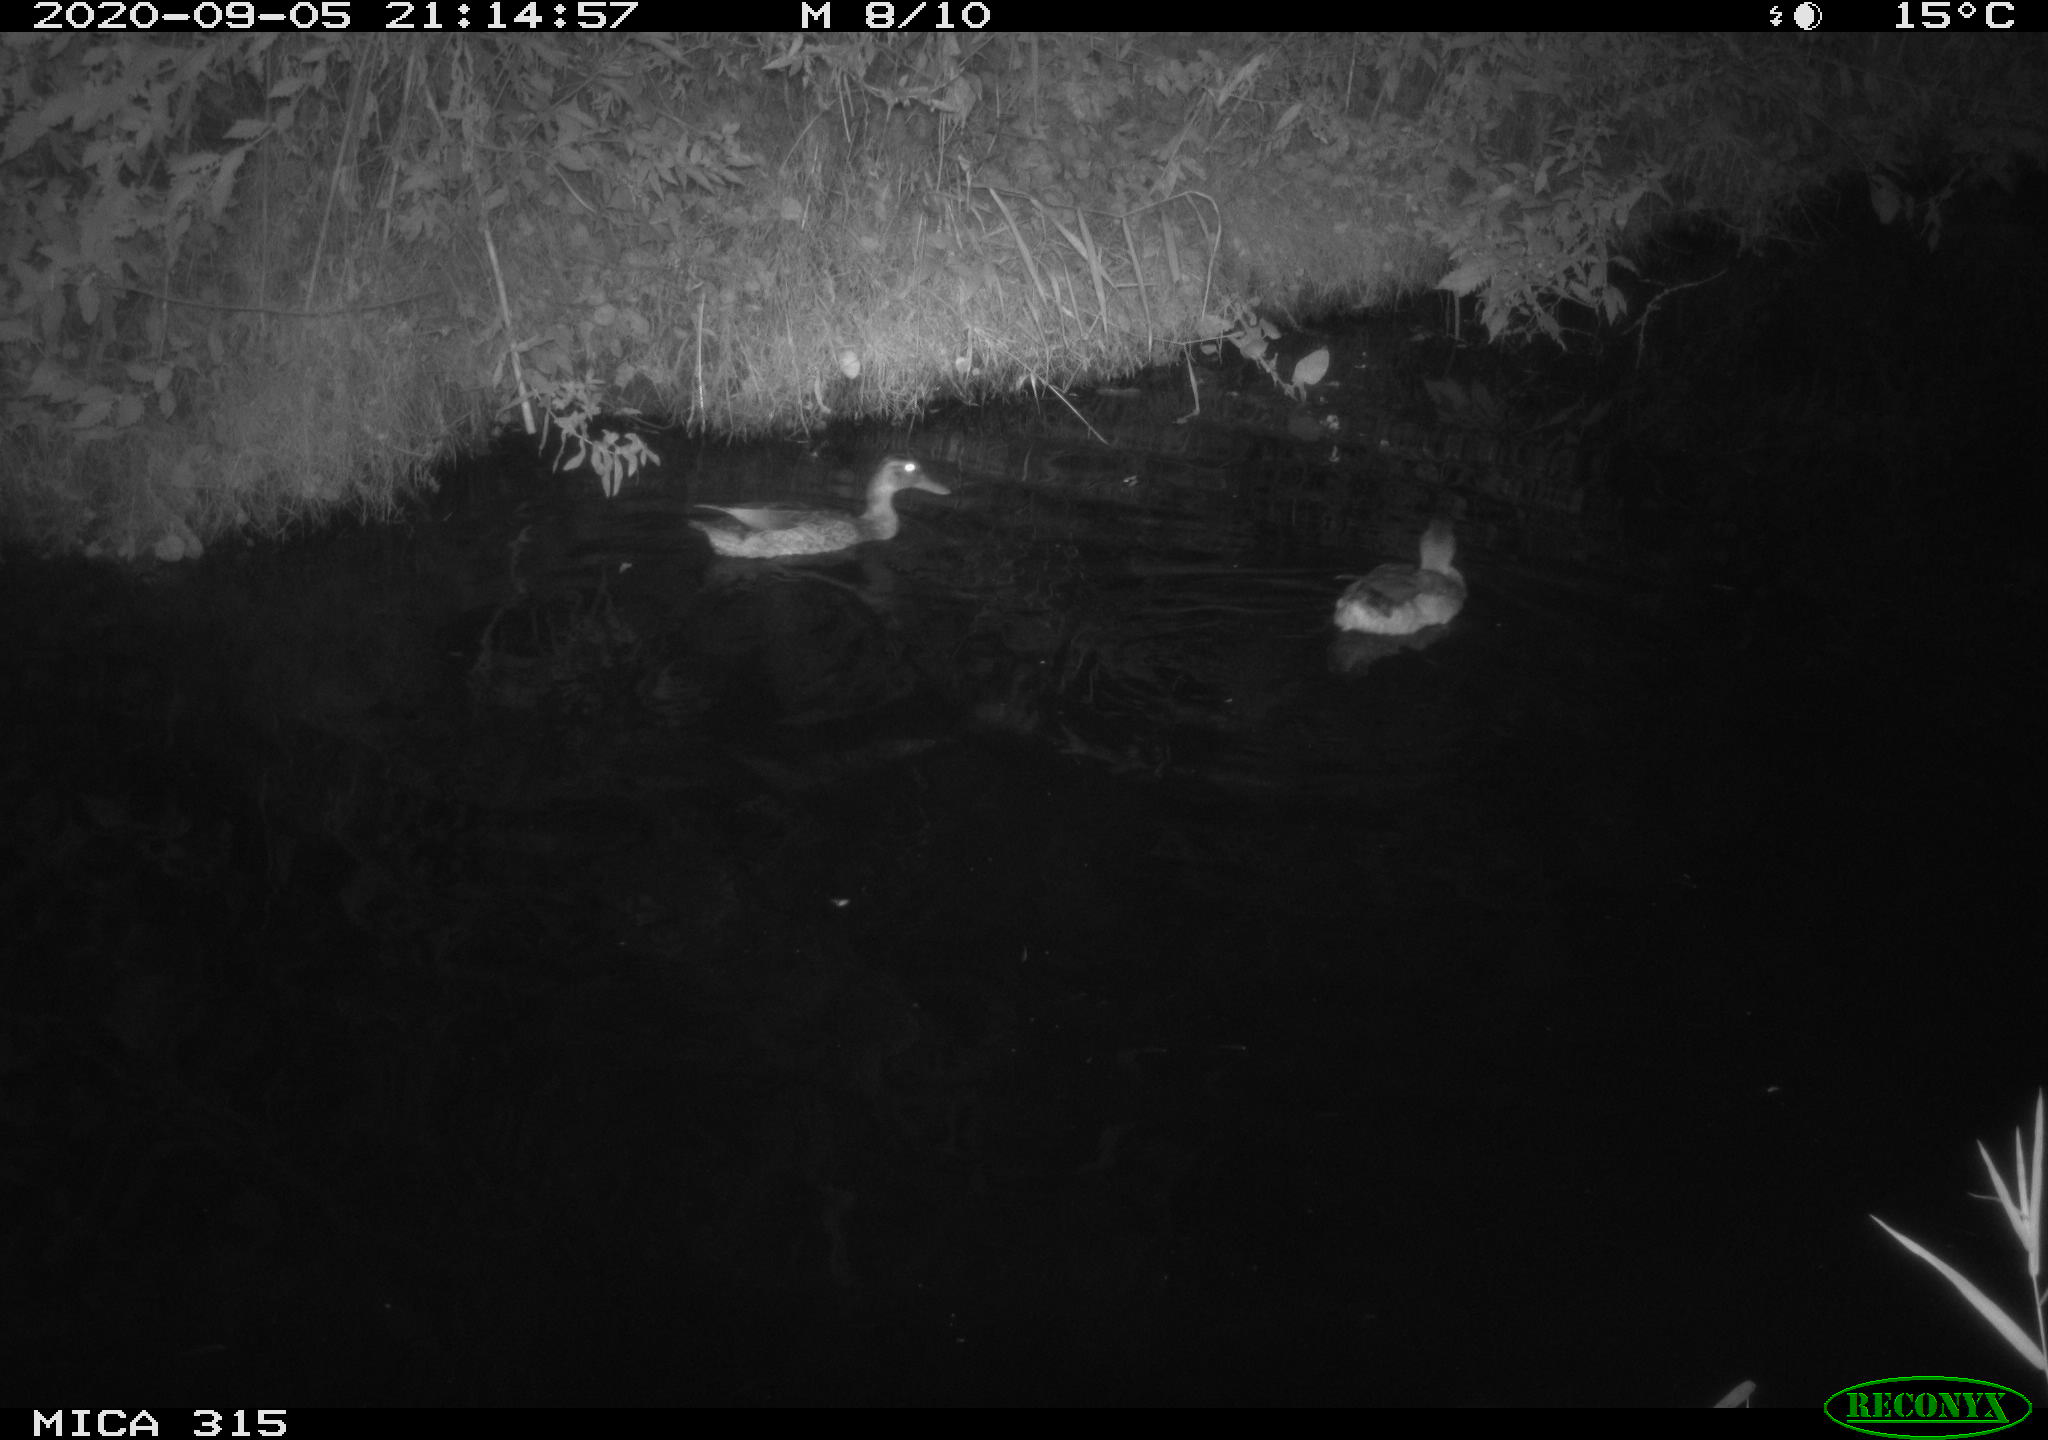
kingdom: Animalia
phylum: Chordata
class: Aves
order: Anseriformes
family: Anatidae
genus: Anas
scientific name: Anas platyrhynchos
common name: Mallard
